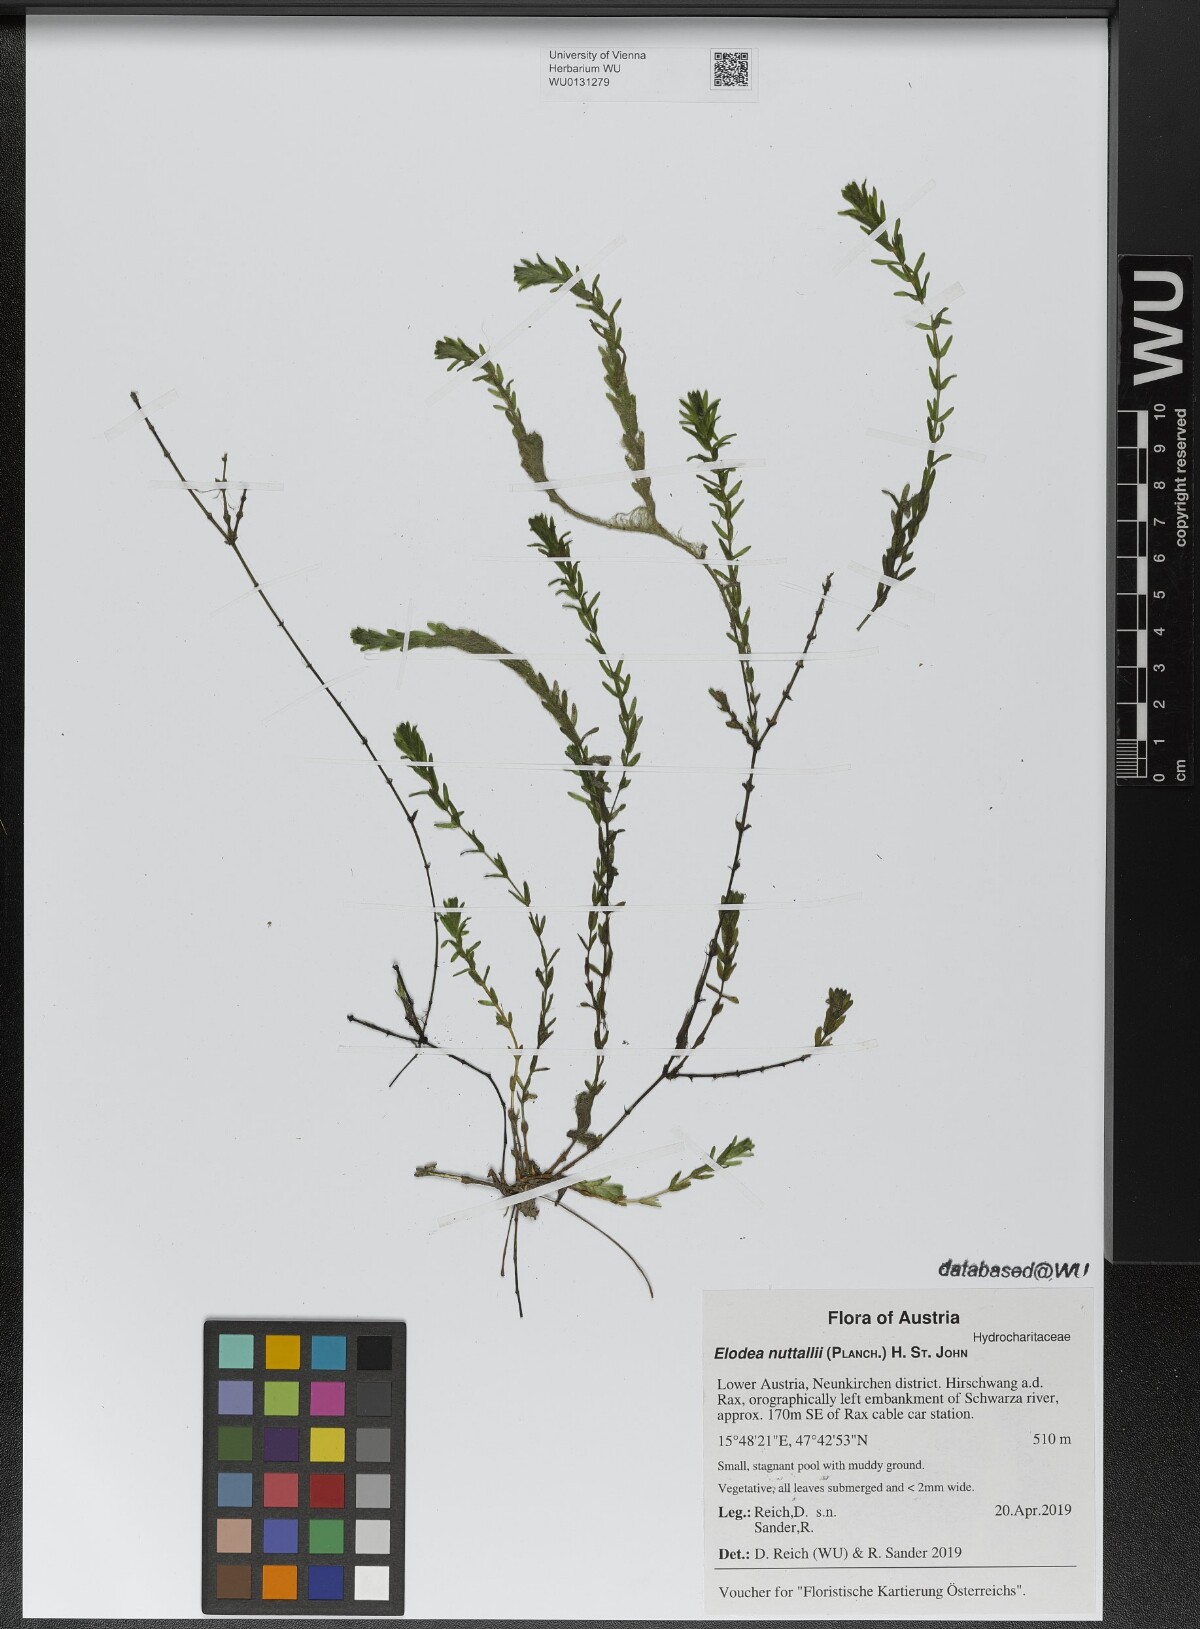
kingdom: Plantae
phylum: Tracheophyta
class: Liliopsida
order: Alismatales
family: Hydrocharitaceae
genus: Elodea
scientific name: Elodea nuttallii
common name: Nuttall's waterweed
